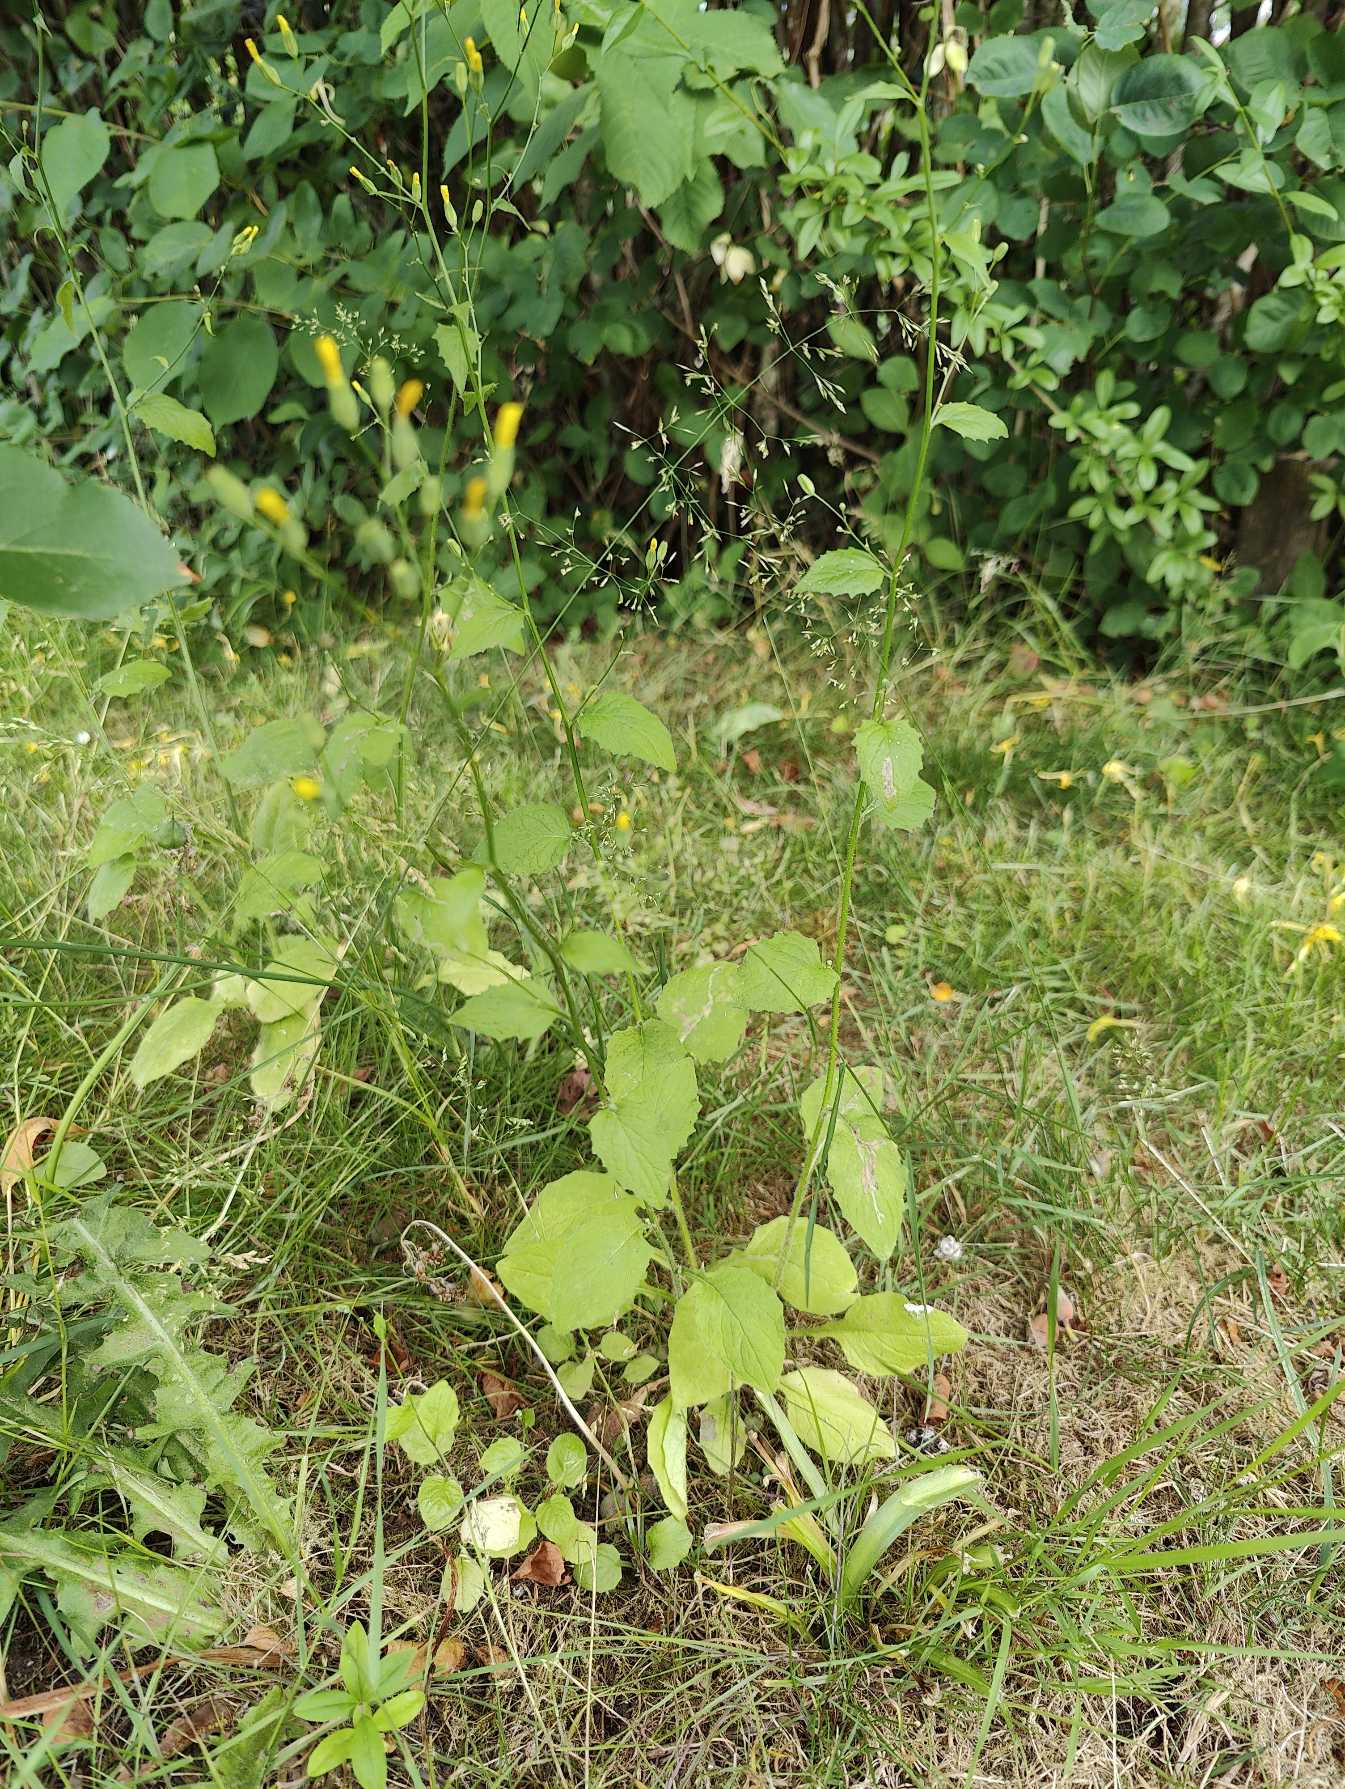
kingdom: Plantae
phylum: Tracheophyta
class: Magnoliopsida
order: Asterales
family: Asteraceae
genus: Lapsana
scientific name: Lapsana communis
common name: Haremad
